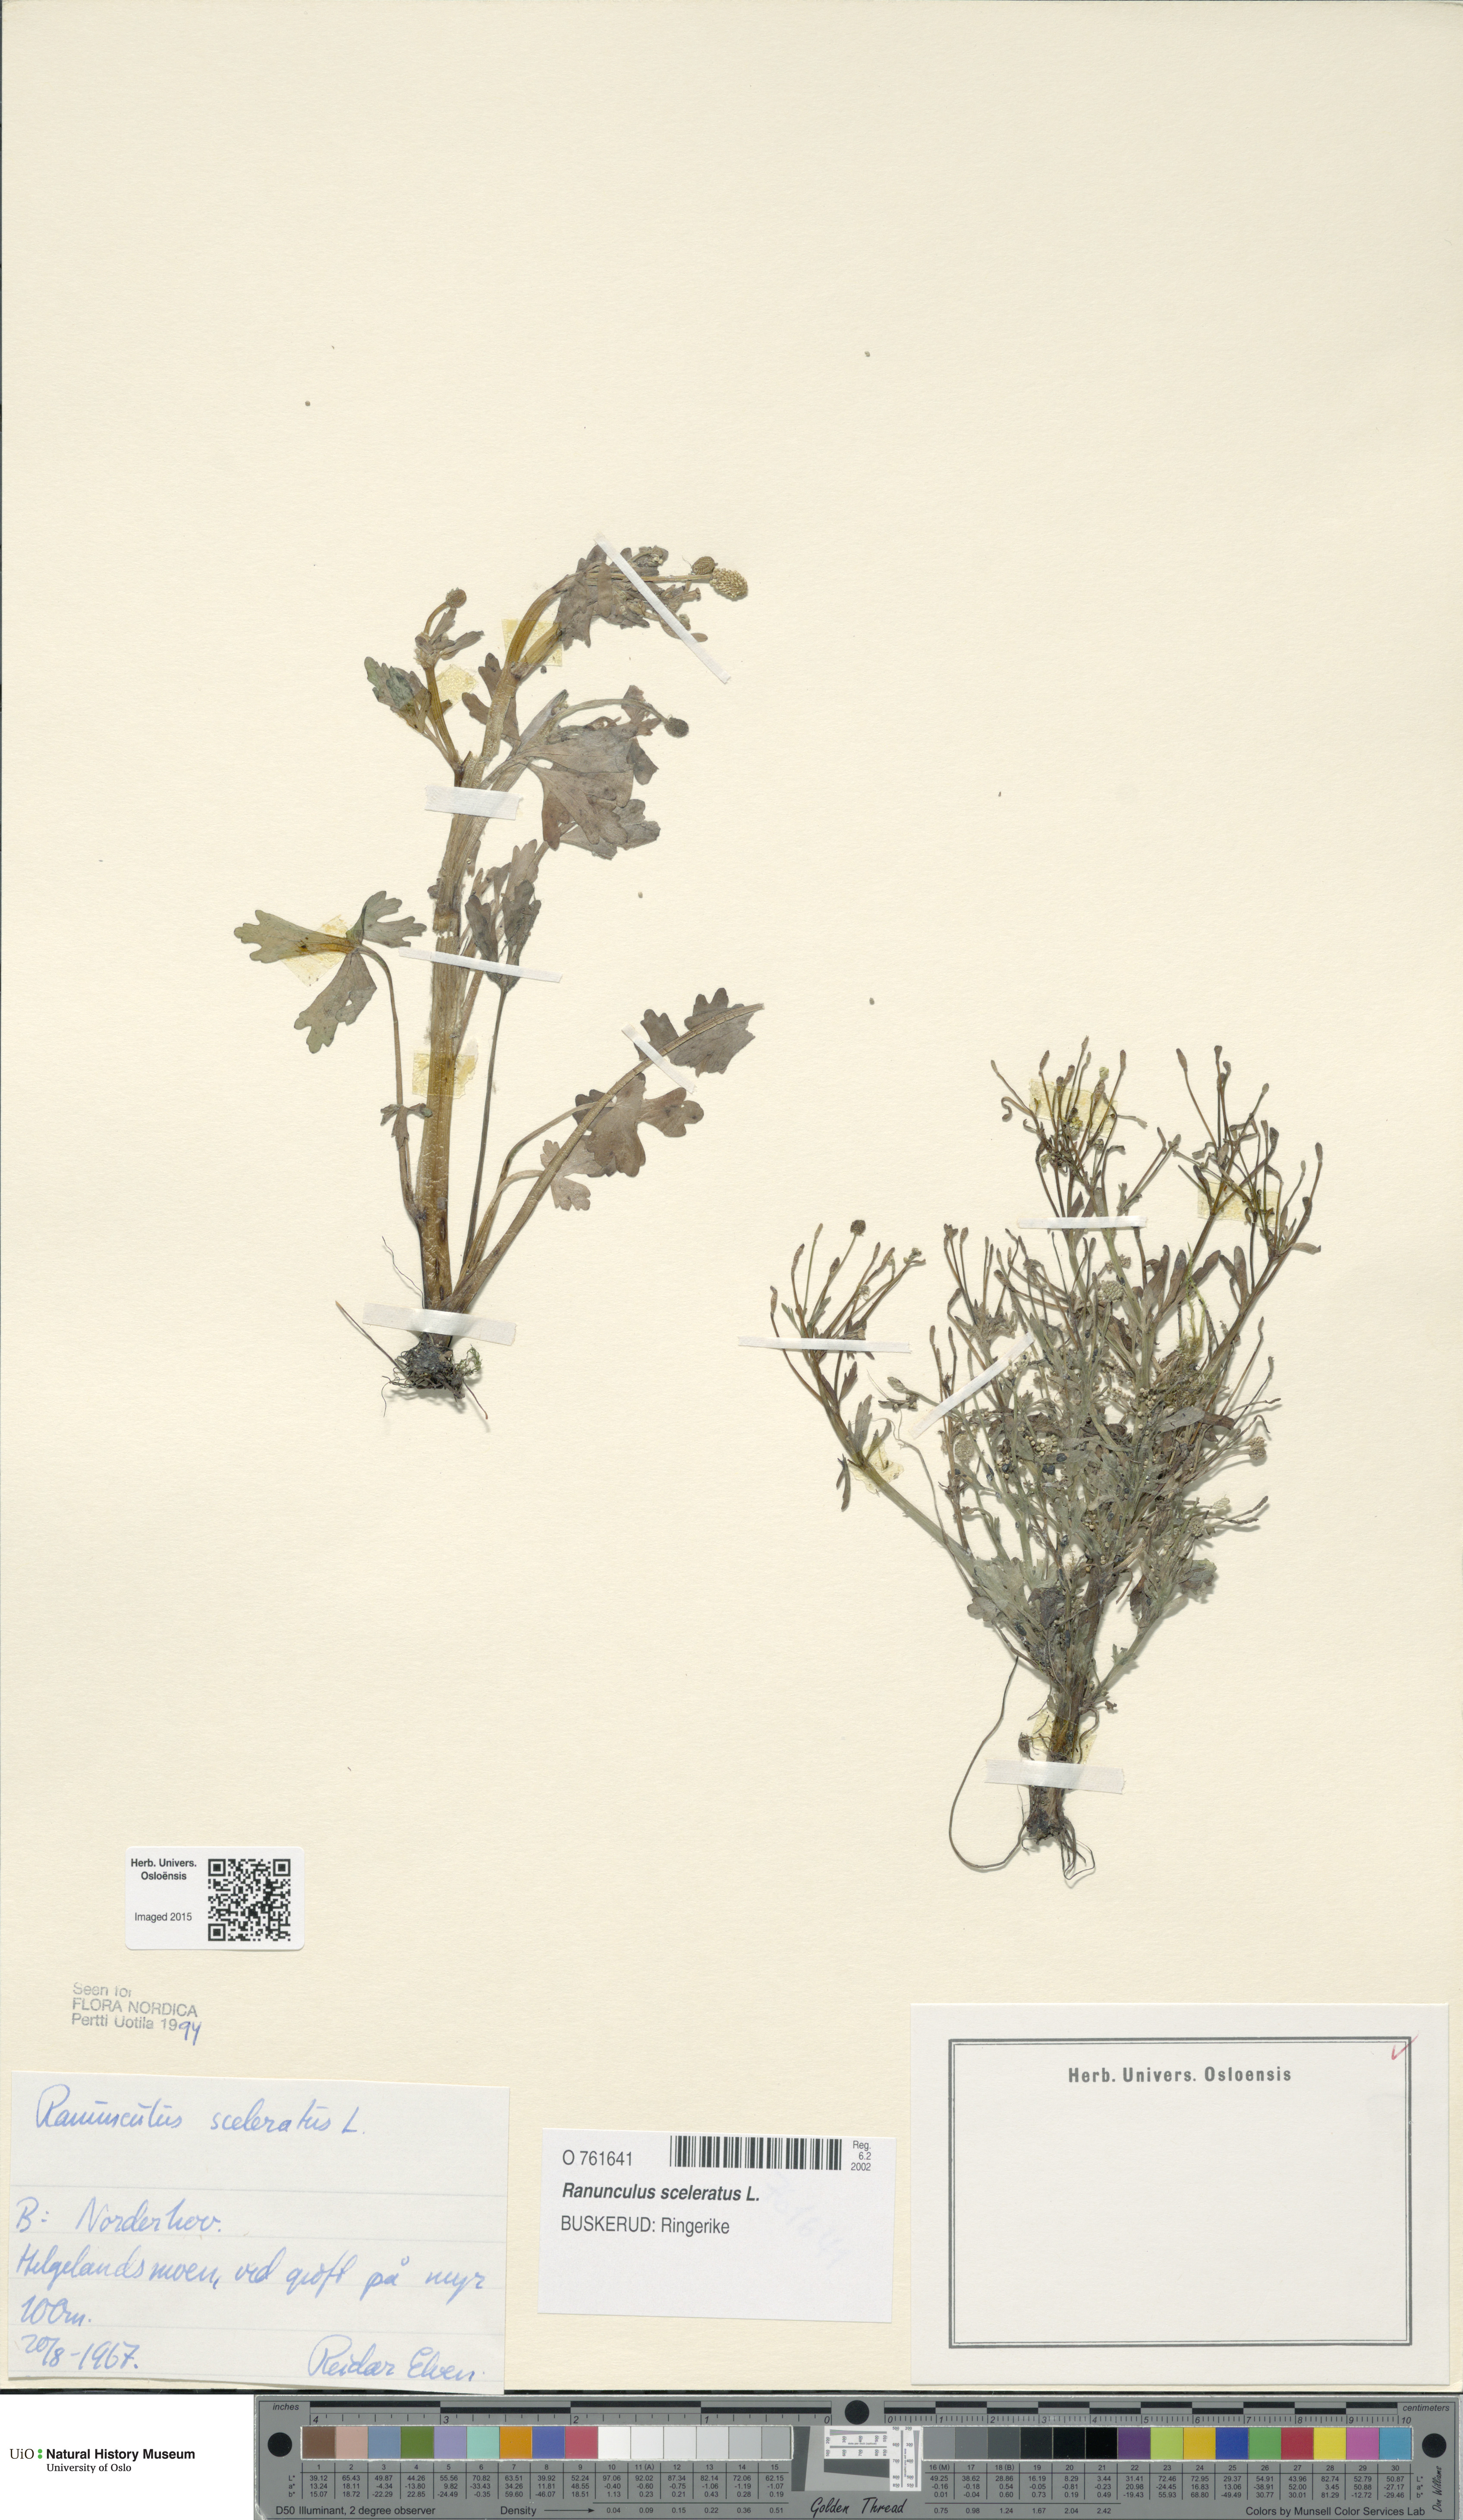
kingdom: Plantae
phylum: Tracheophyta
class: Magnoliopsida
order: Ranunculales
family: Ranunculaceae
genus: Ranunculus
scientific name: Ranunculus sceleratus
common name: Celery-leaved buttercup
